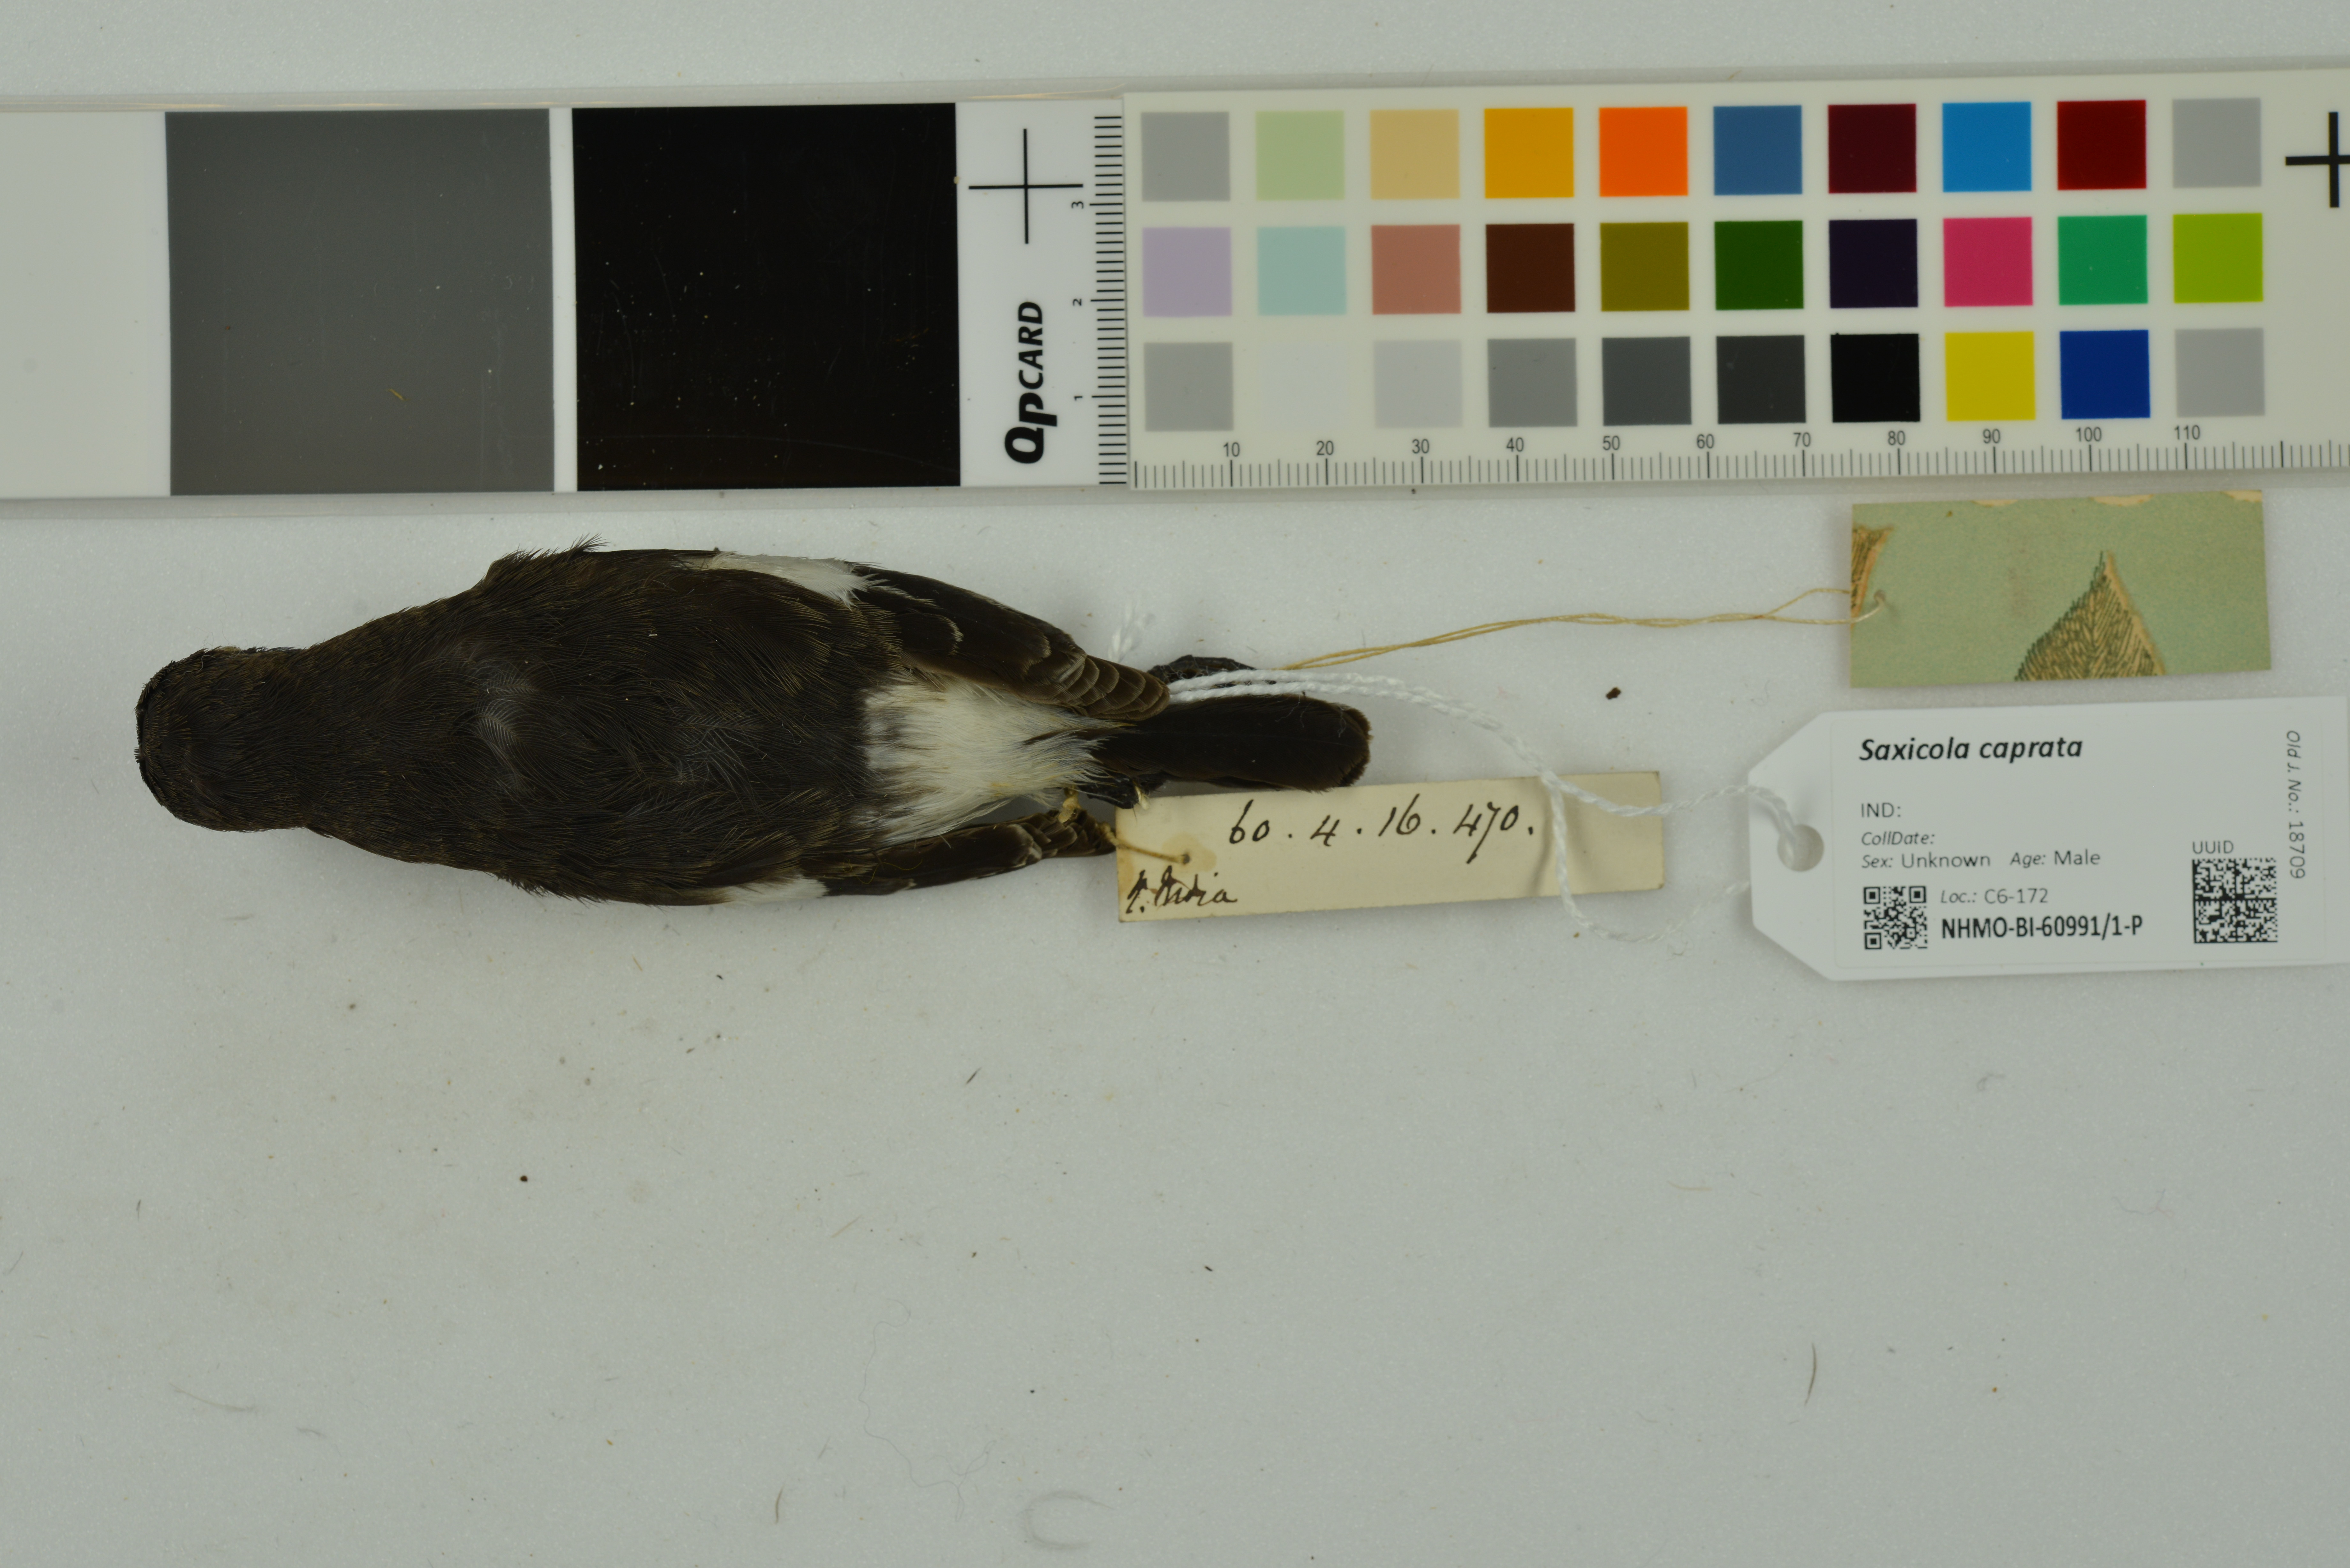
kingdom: Animalia
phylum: Chordata
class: Aves
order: Passeriformes
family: Muscicapidae
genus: Saxicola
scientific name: Saxicola caprata
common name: Pied bush chat
